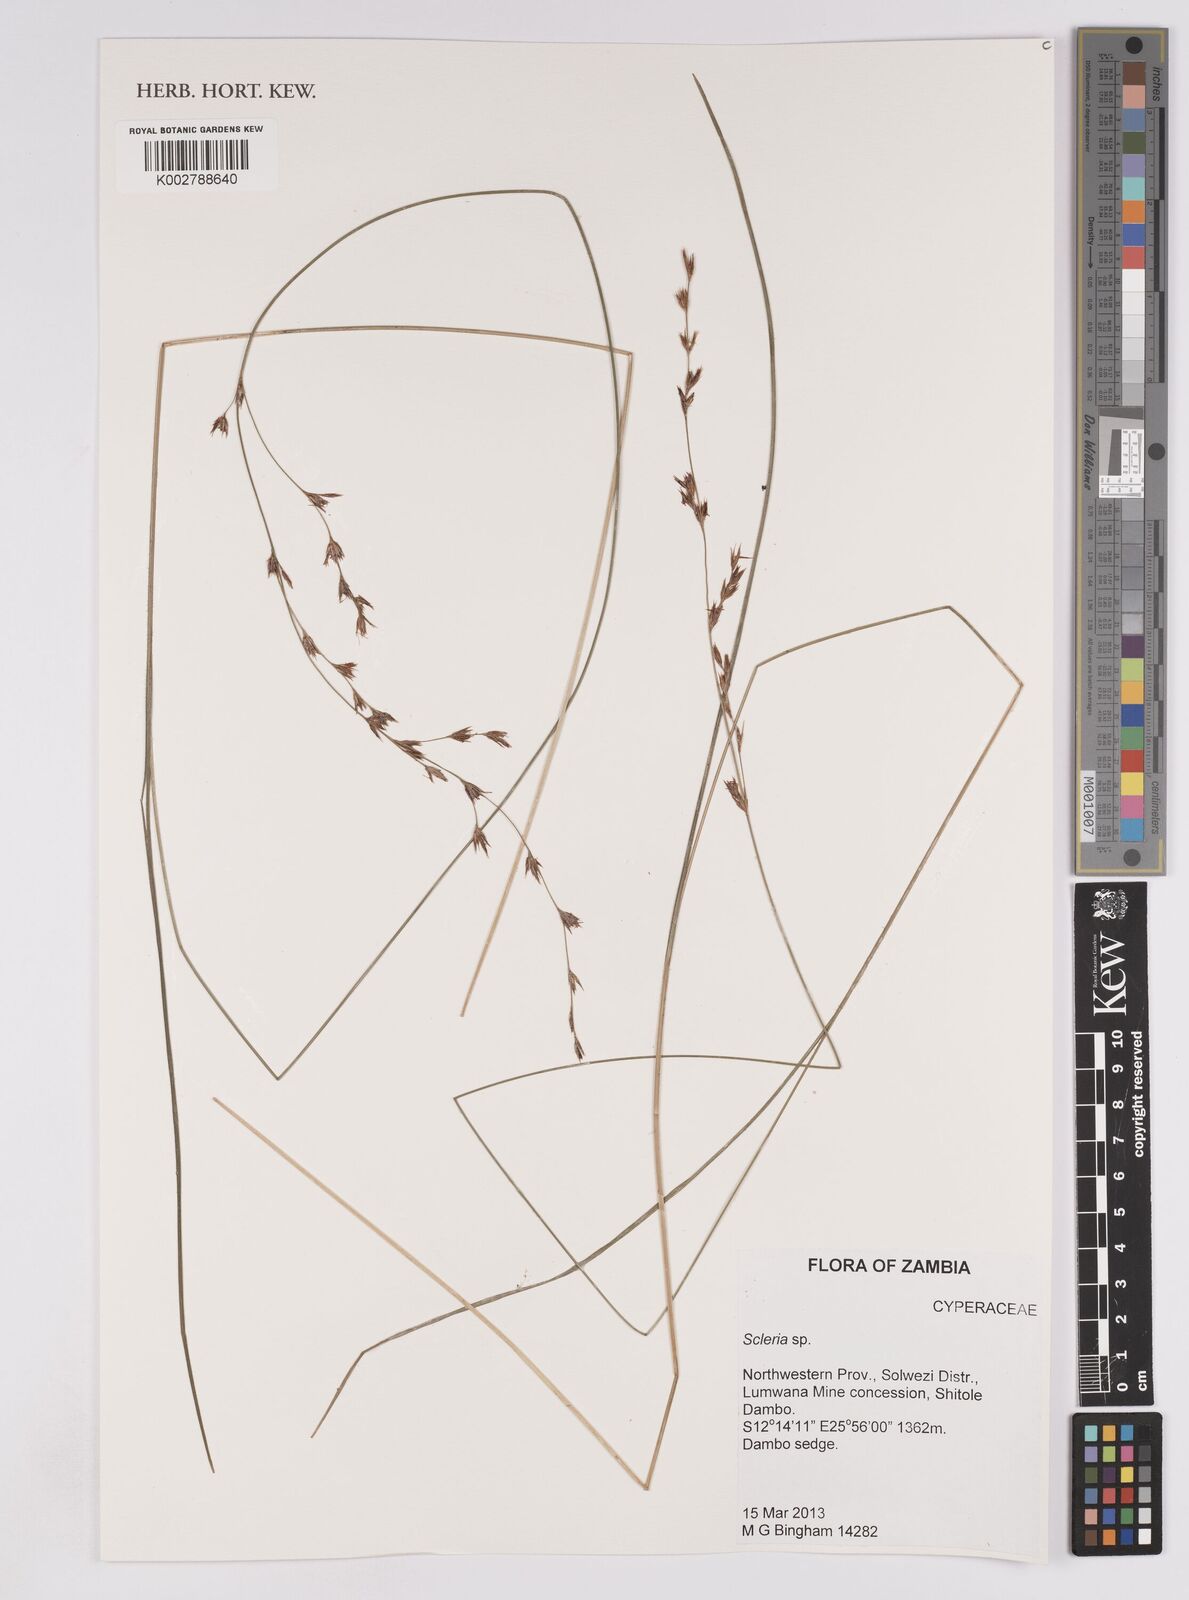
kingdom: Plantae
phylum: Tracheophyta
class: Liliopsida
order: Poales
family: Cyperaceae
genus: Scleria
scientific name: Scleria
